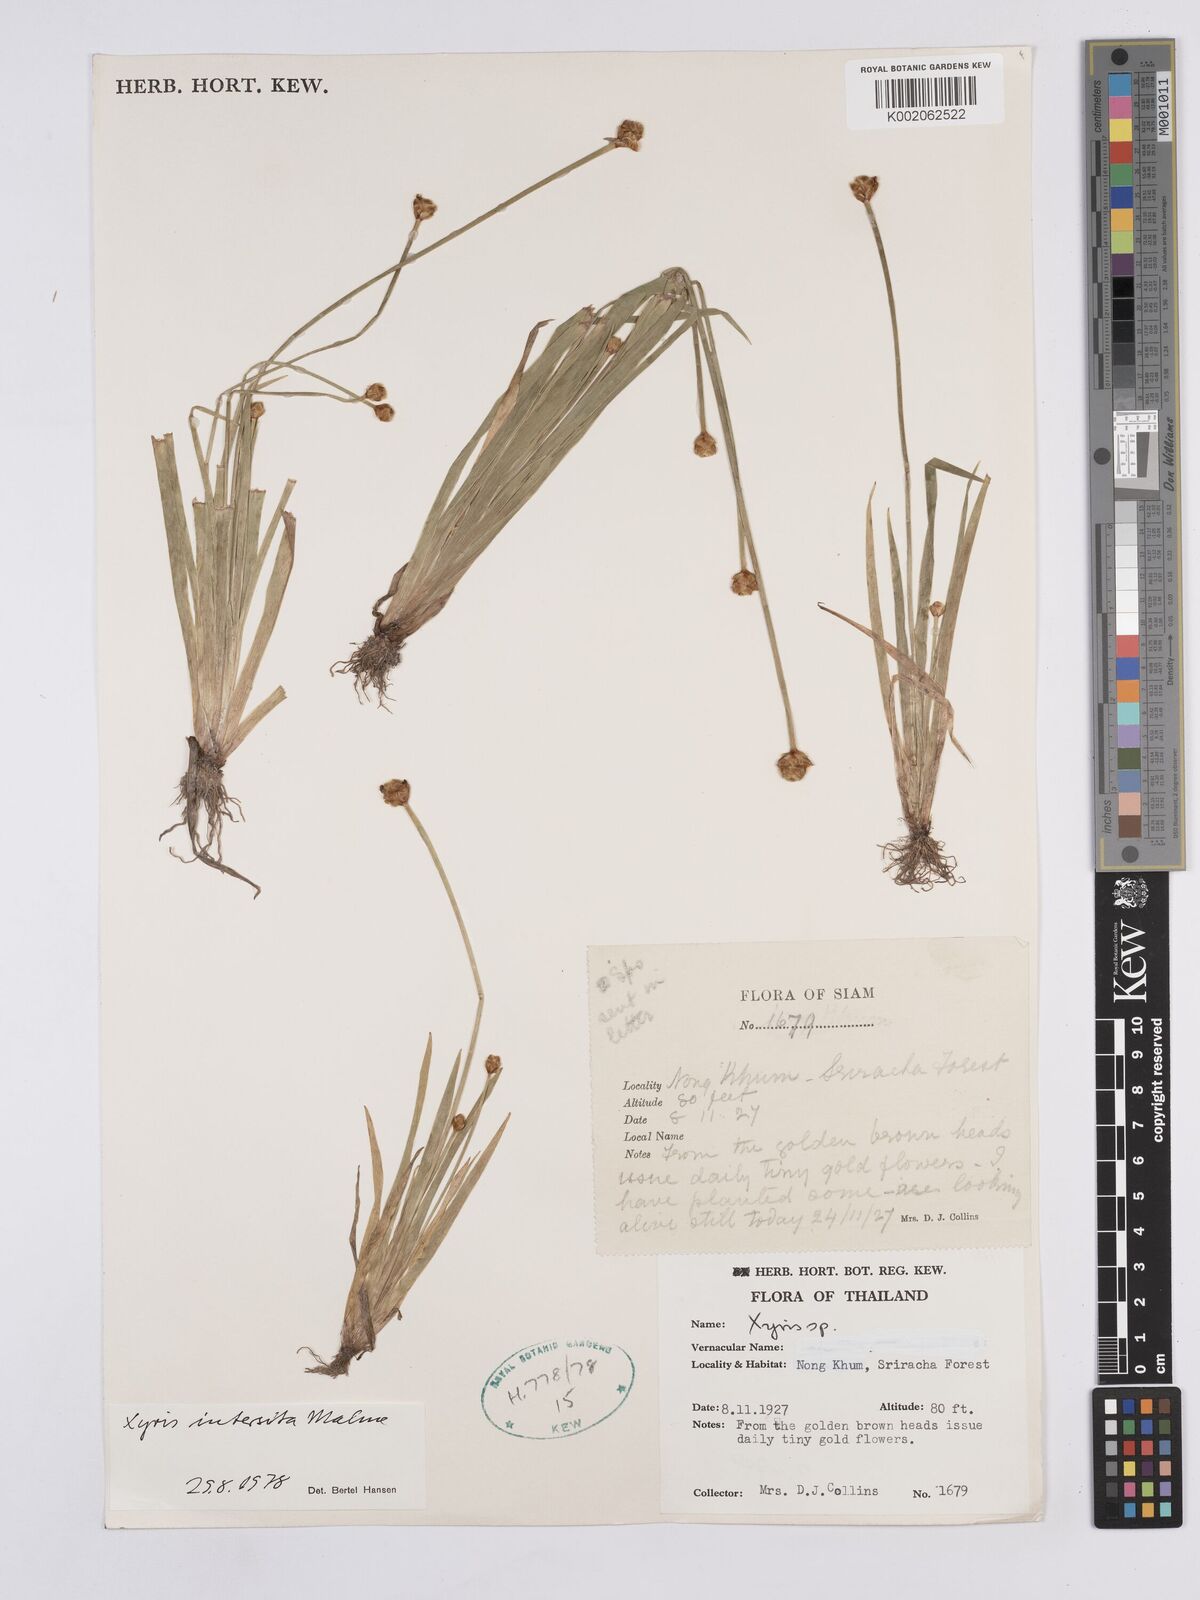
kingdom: Plantae
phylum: Tracheophyta
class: Liliopsida
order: Poales
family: Xyridaceae
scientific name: Xyridaceae
